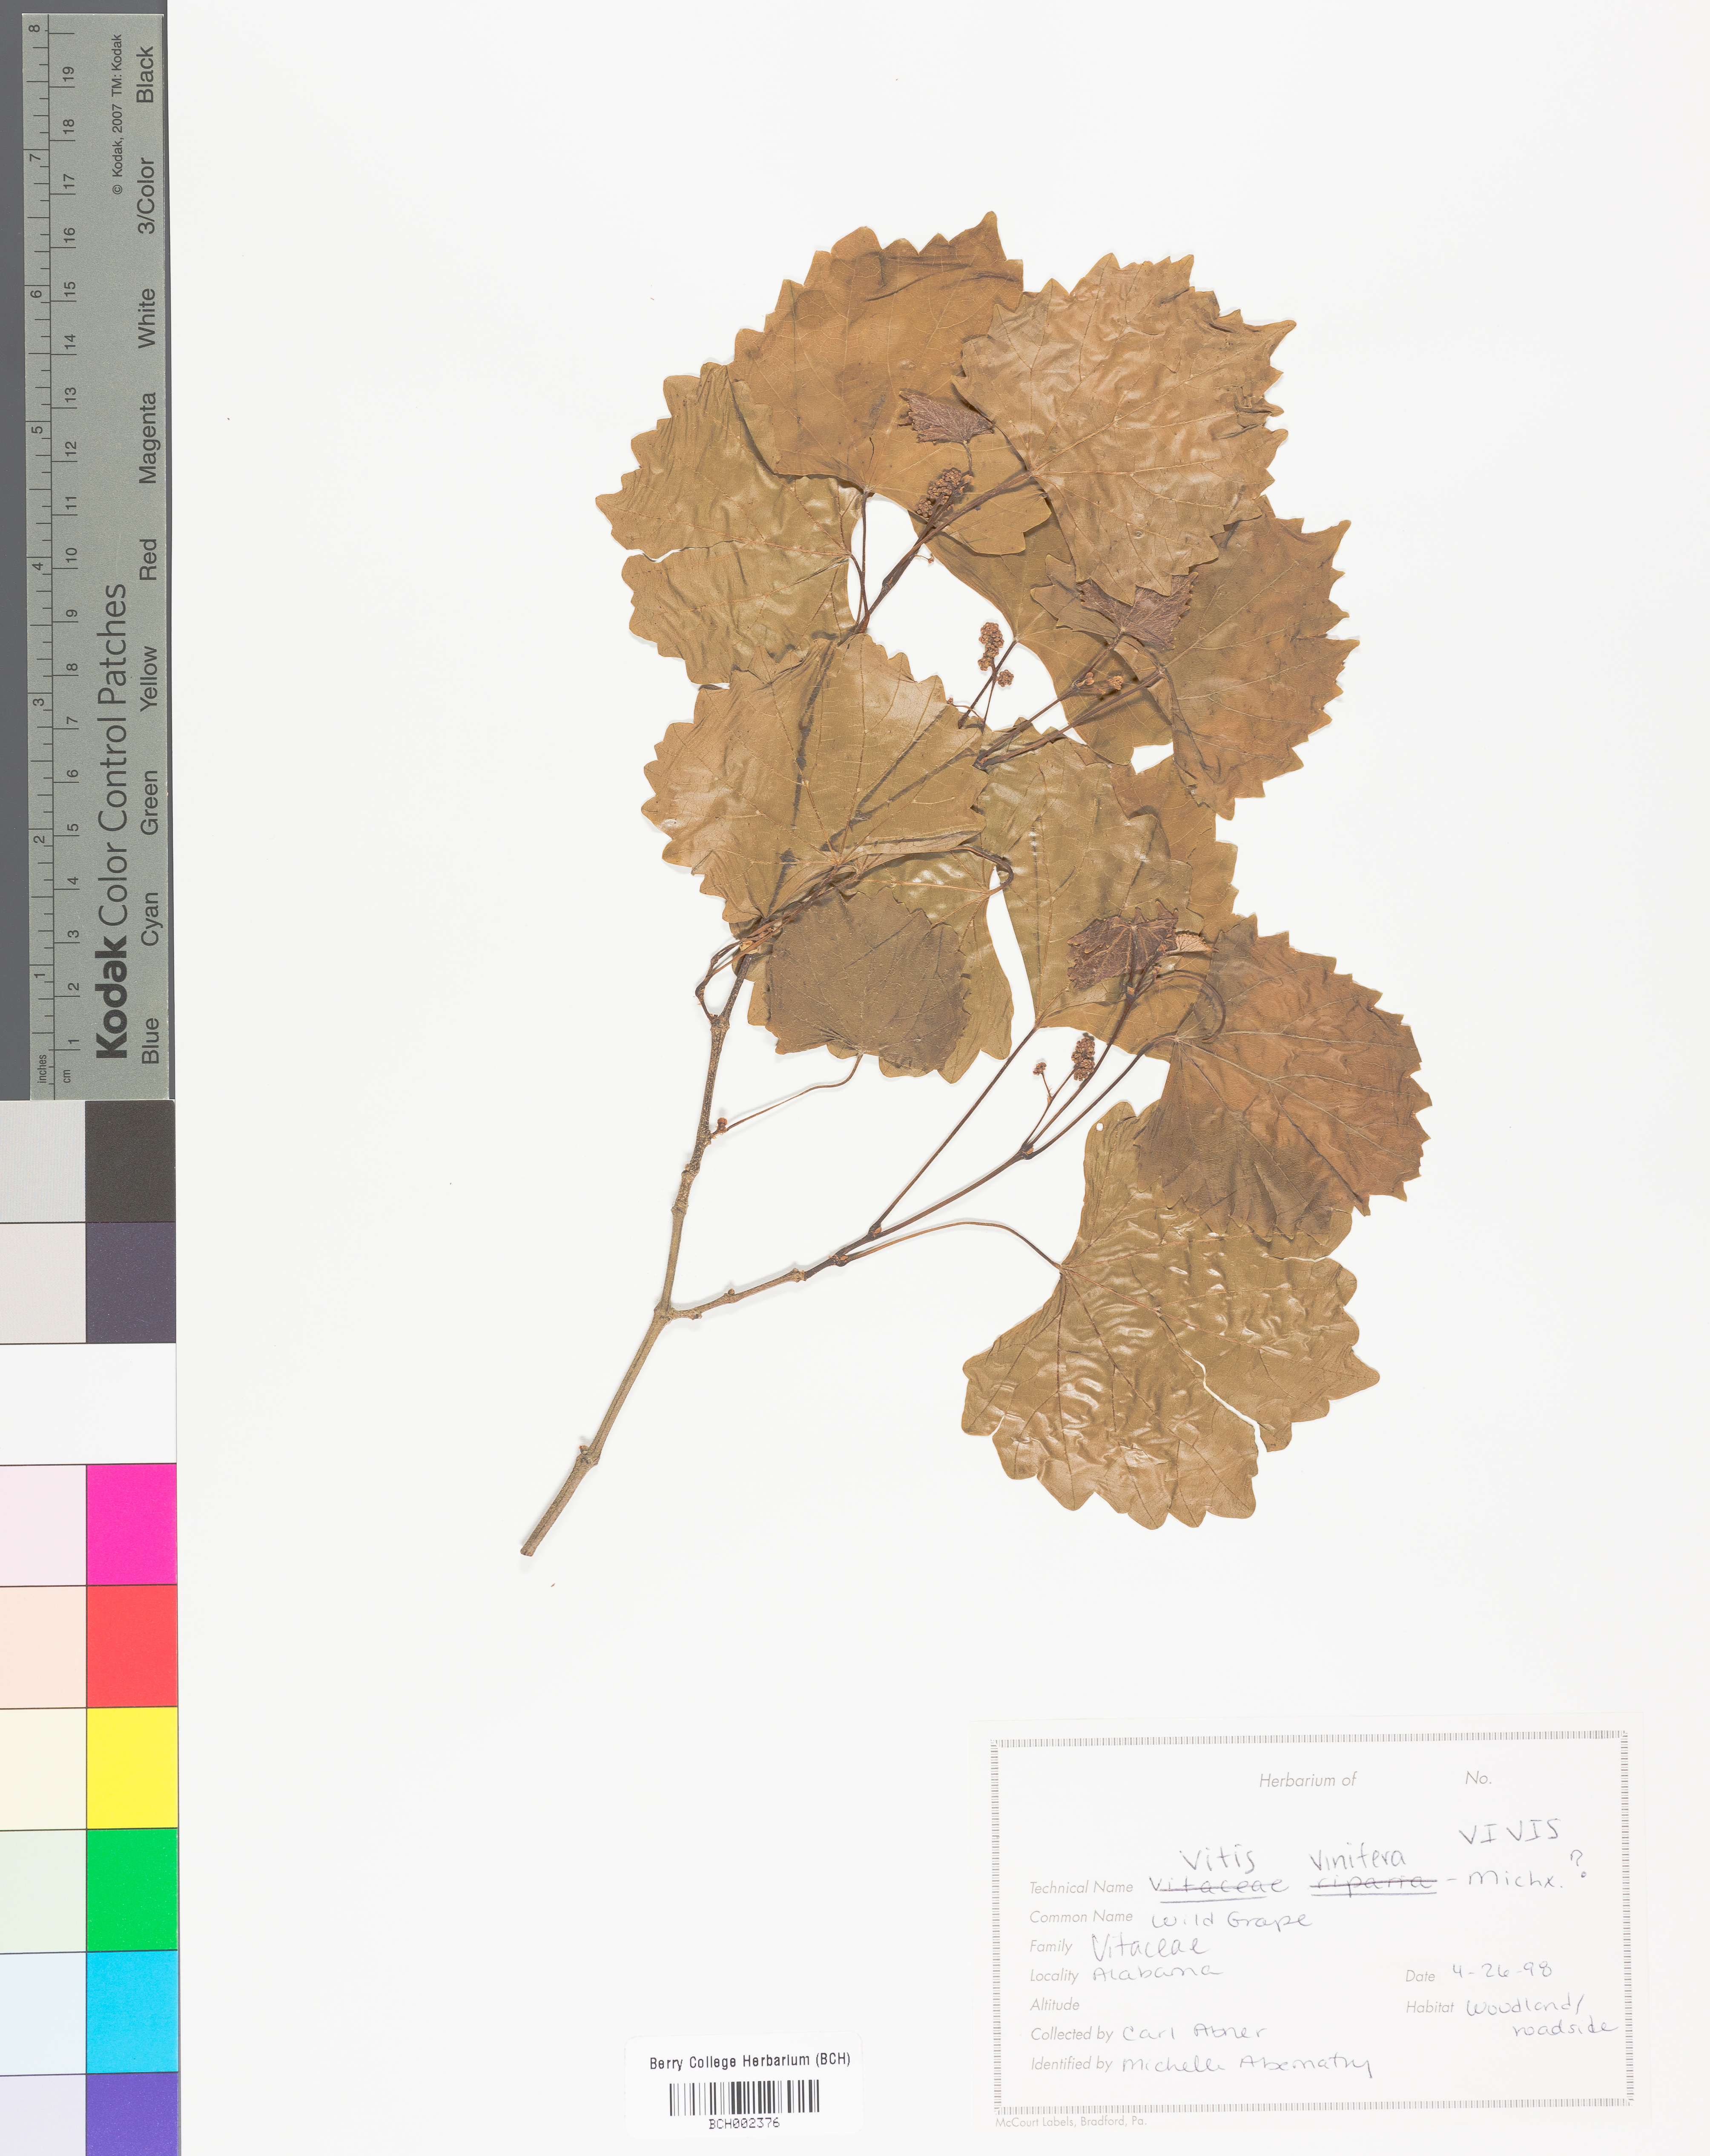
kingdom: Plantae
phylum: Tracheophyta
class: Magnoliopsida
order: Vitales
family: Vitaceae
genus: Vitis
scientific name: Vitis vinifera
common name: Grape-vine
